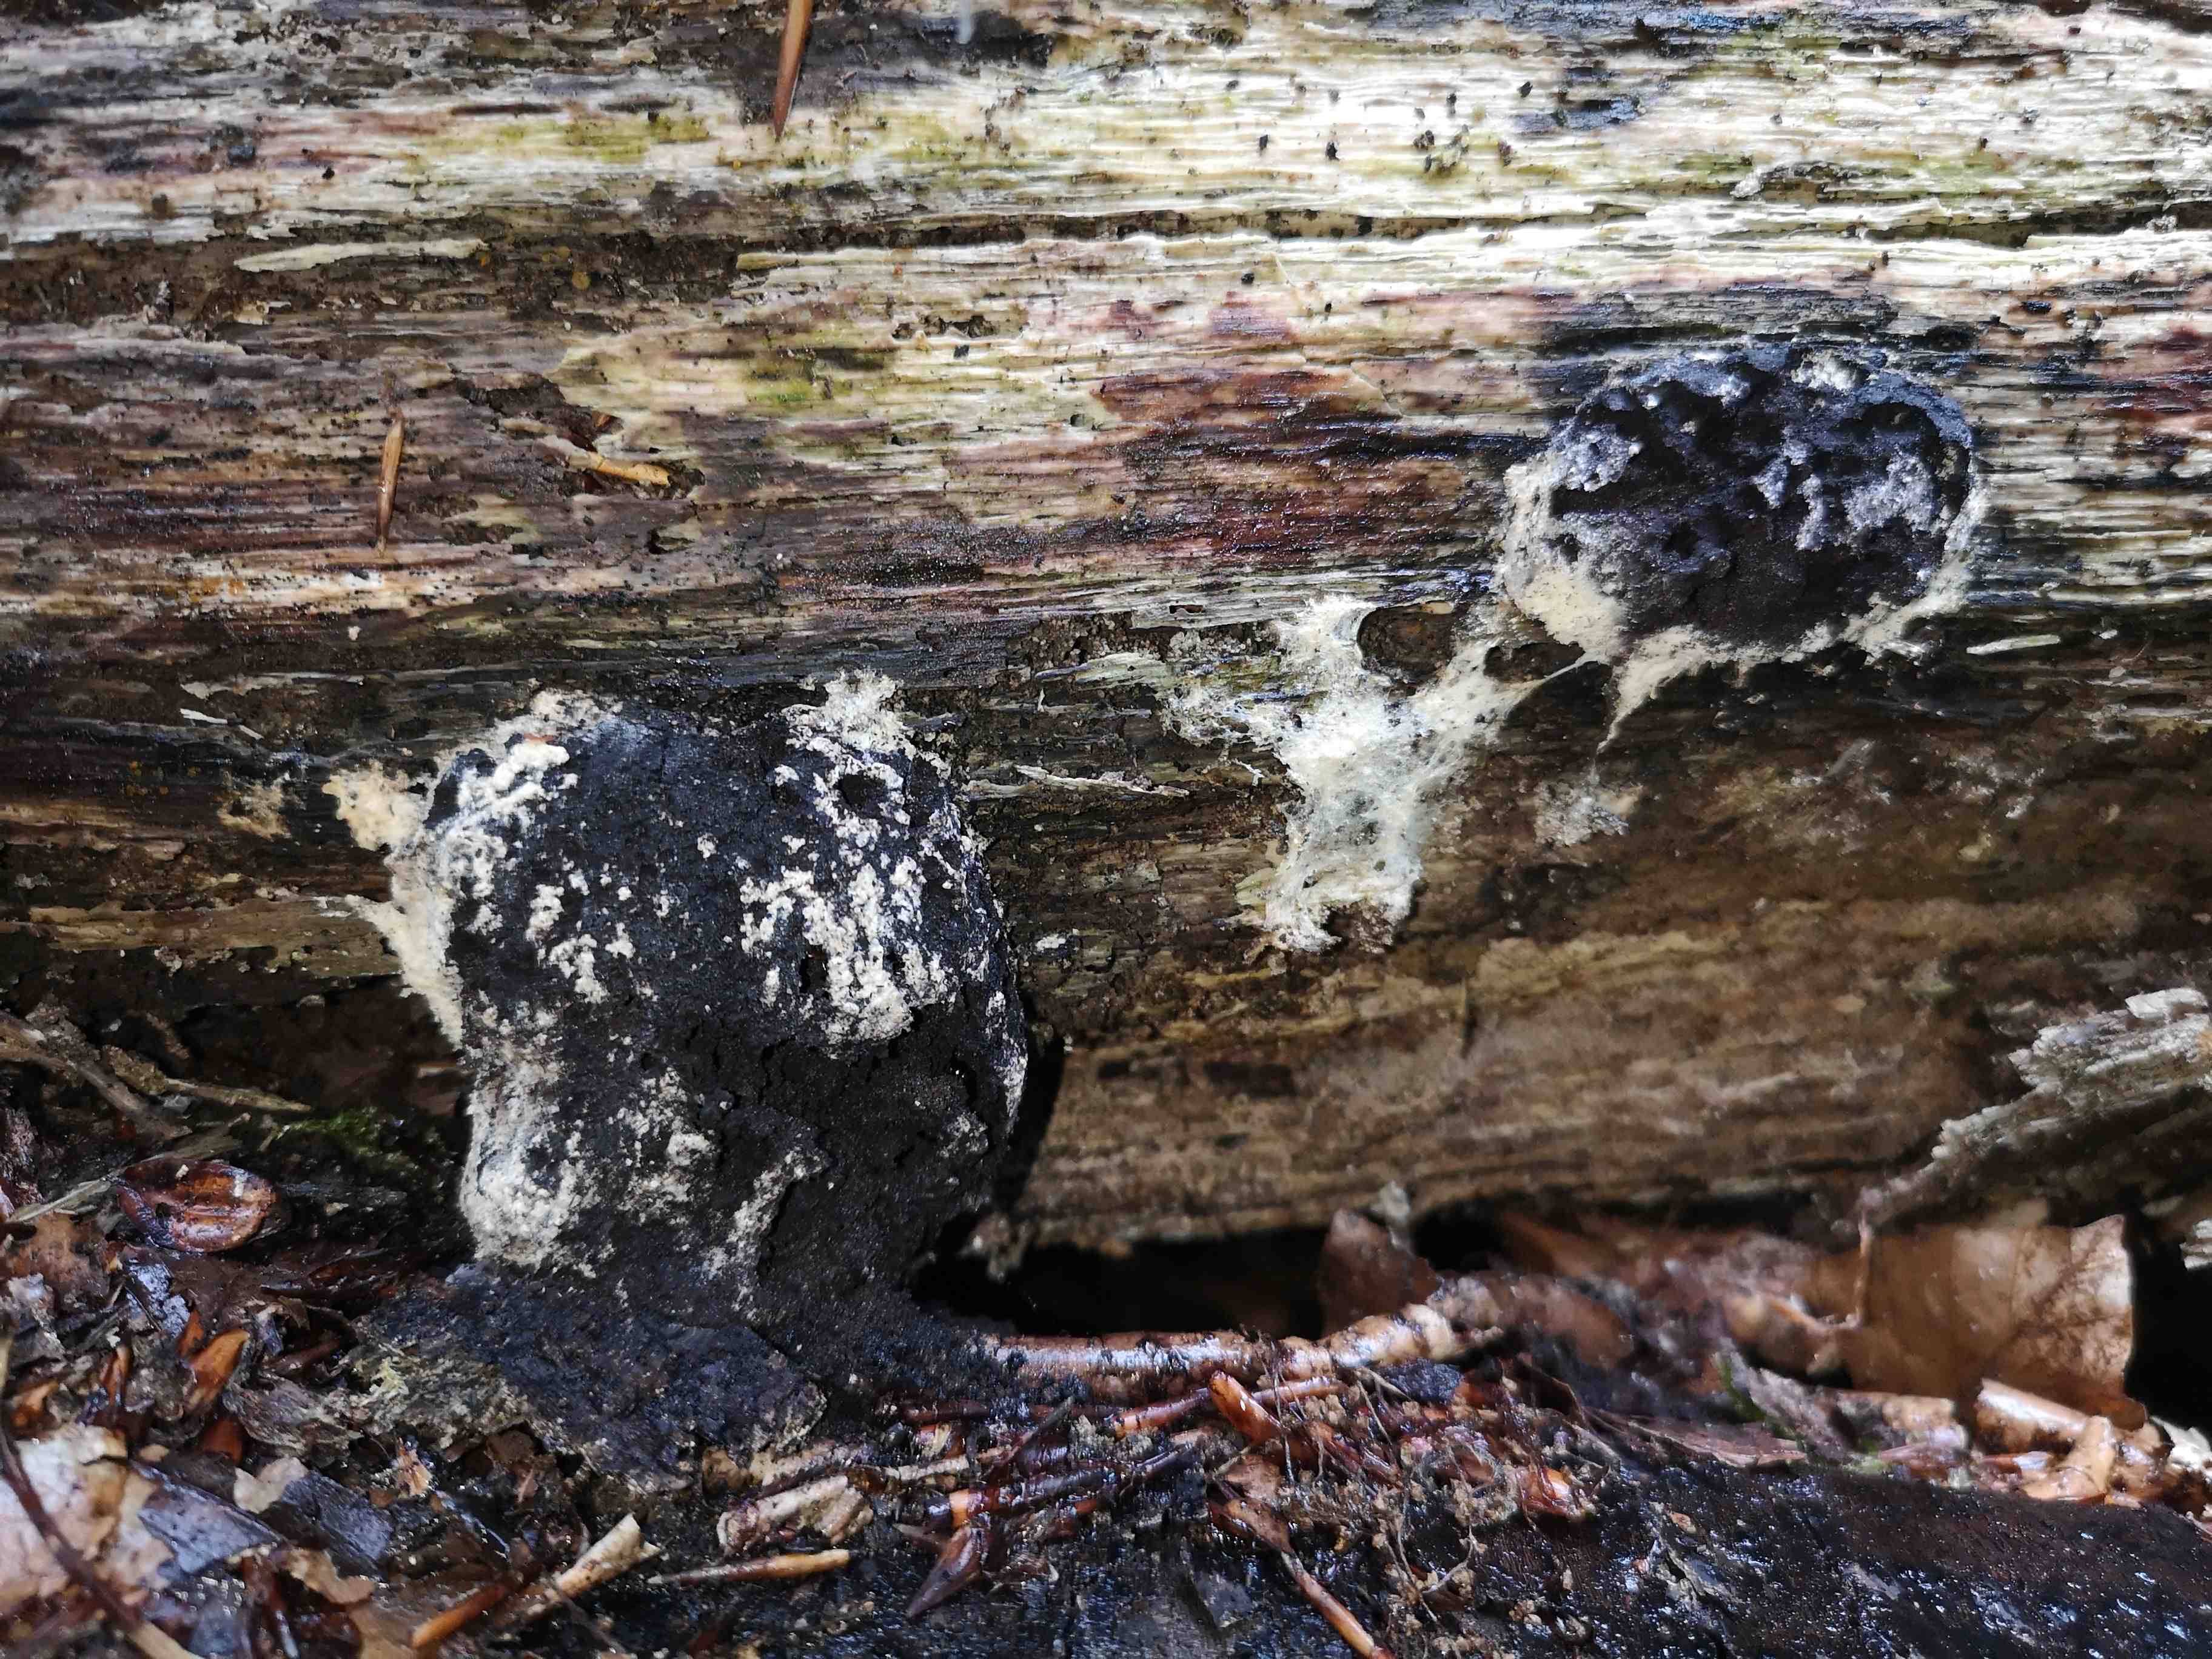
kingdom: Protozoa
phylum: Mycetozoa
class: Myxomycetes
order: Physarales
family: Physaraceae
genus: Fuligo
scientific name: Fuligo septica
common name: Dog vomit slime mold
